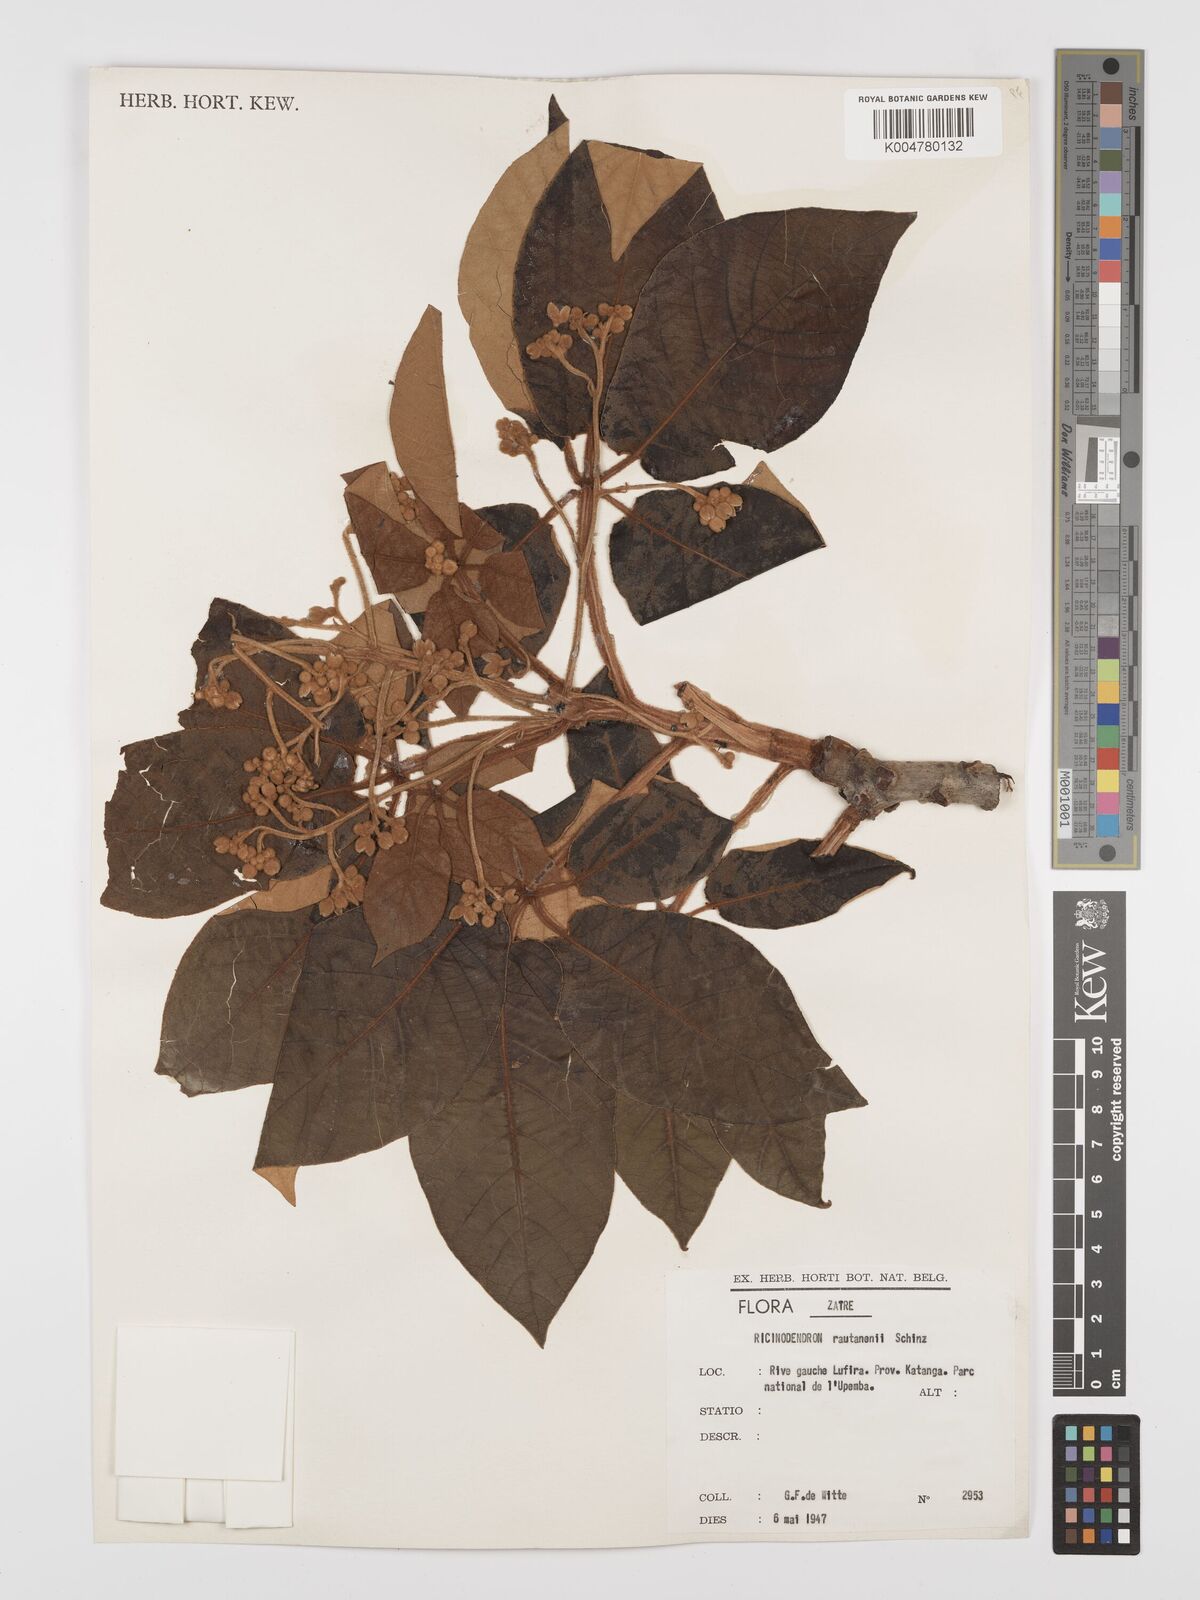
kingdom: Plantae
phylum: Tracheophyta
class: Magnoliopsida
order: Malpighiales
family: Euphorbiaceae
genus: Schinziophyton
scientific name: Schinziophyton rautanenii
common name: Manketti
